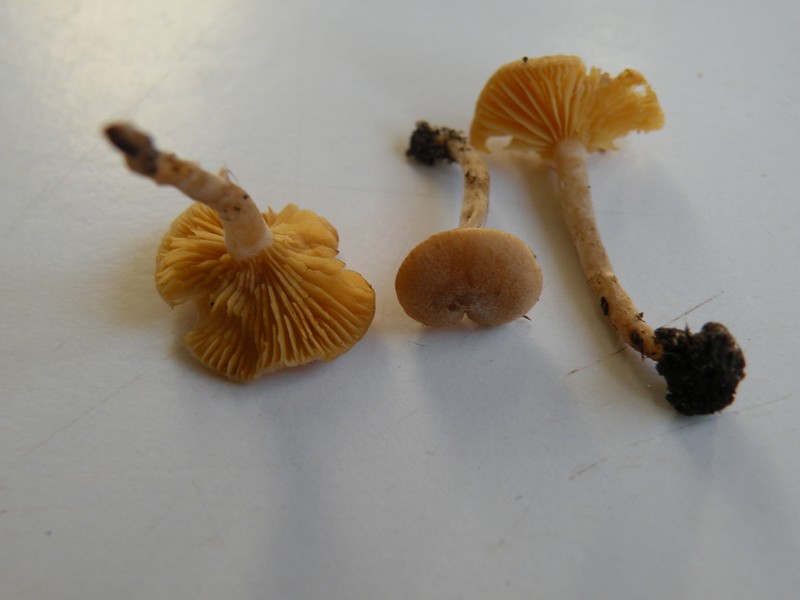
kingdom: Fungi
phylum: Basidiomycota
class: Agaricomycetes
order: Agaricales
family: Tubariaceae
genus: Tubaria
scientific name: Tubaria dispersa
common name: tjørne-fnughat
